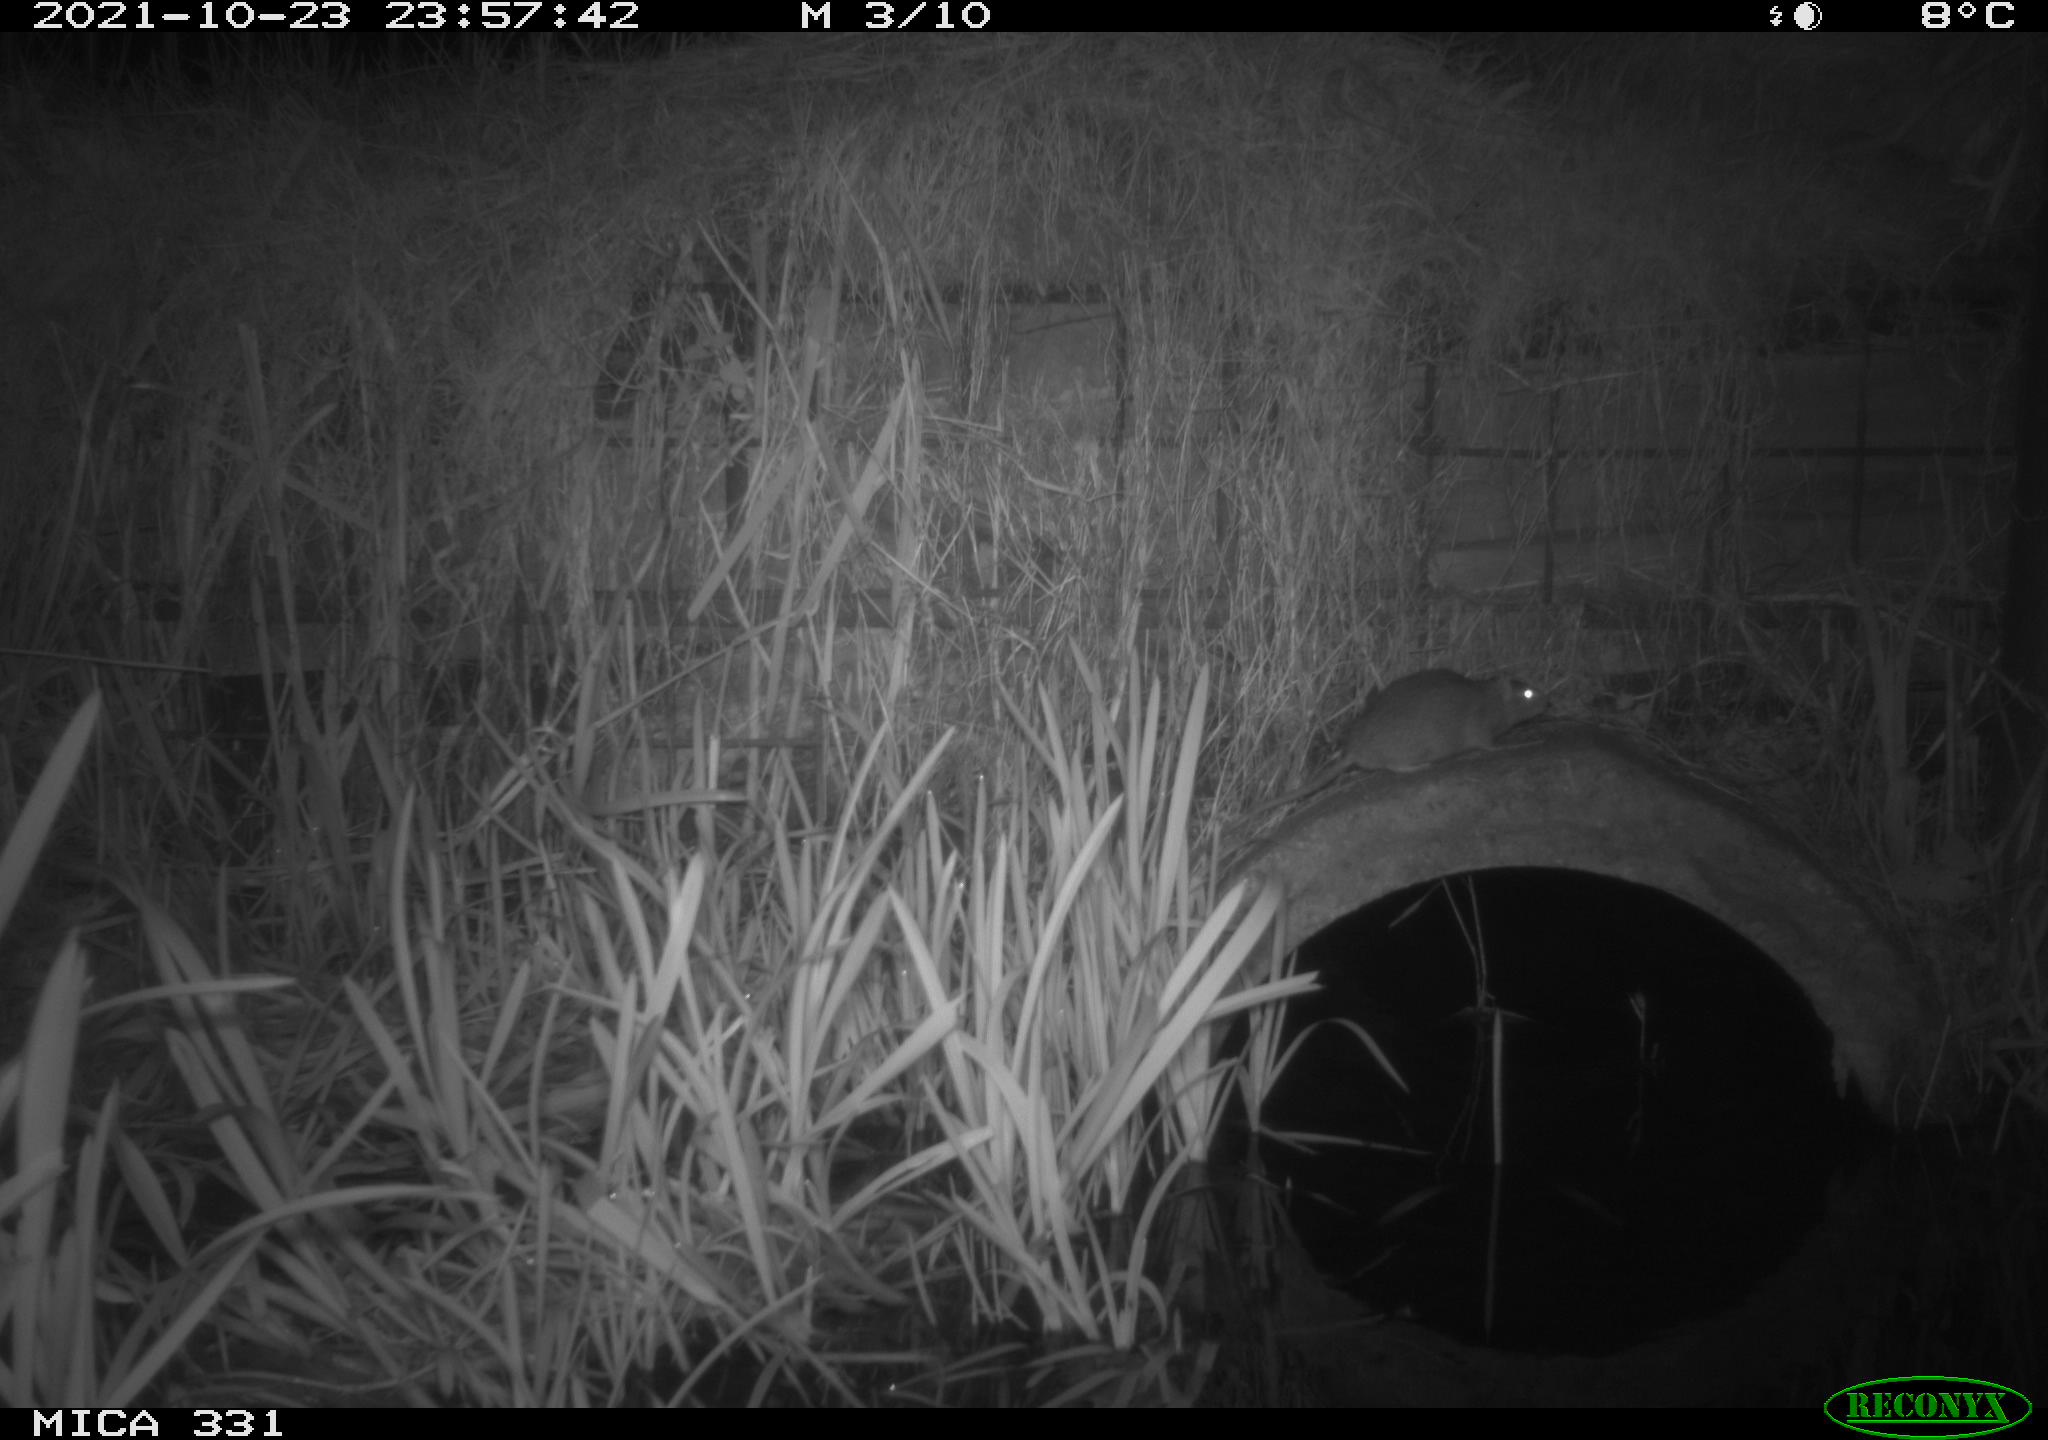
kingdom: Animalia
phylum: Chordata
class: Mammalia
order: Rodentia
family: Muridae
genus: Rattus
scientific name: Rattus norvegicus
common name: Brown rat
